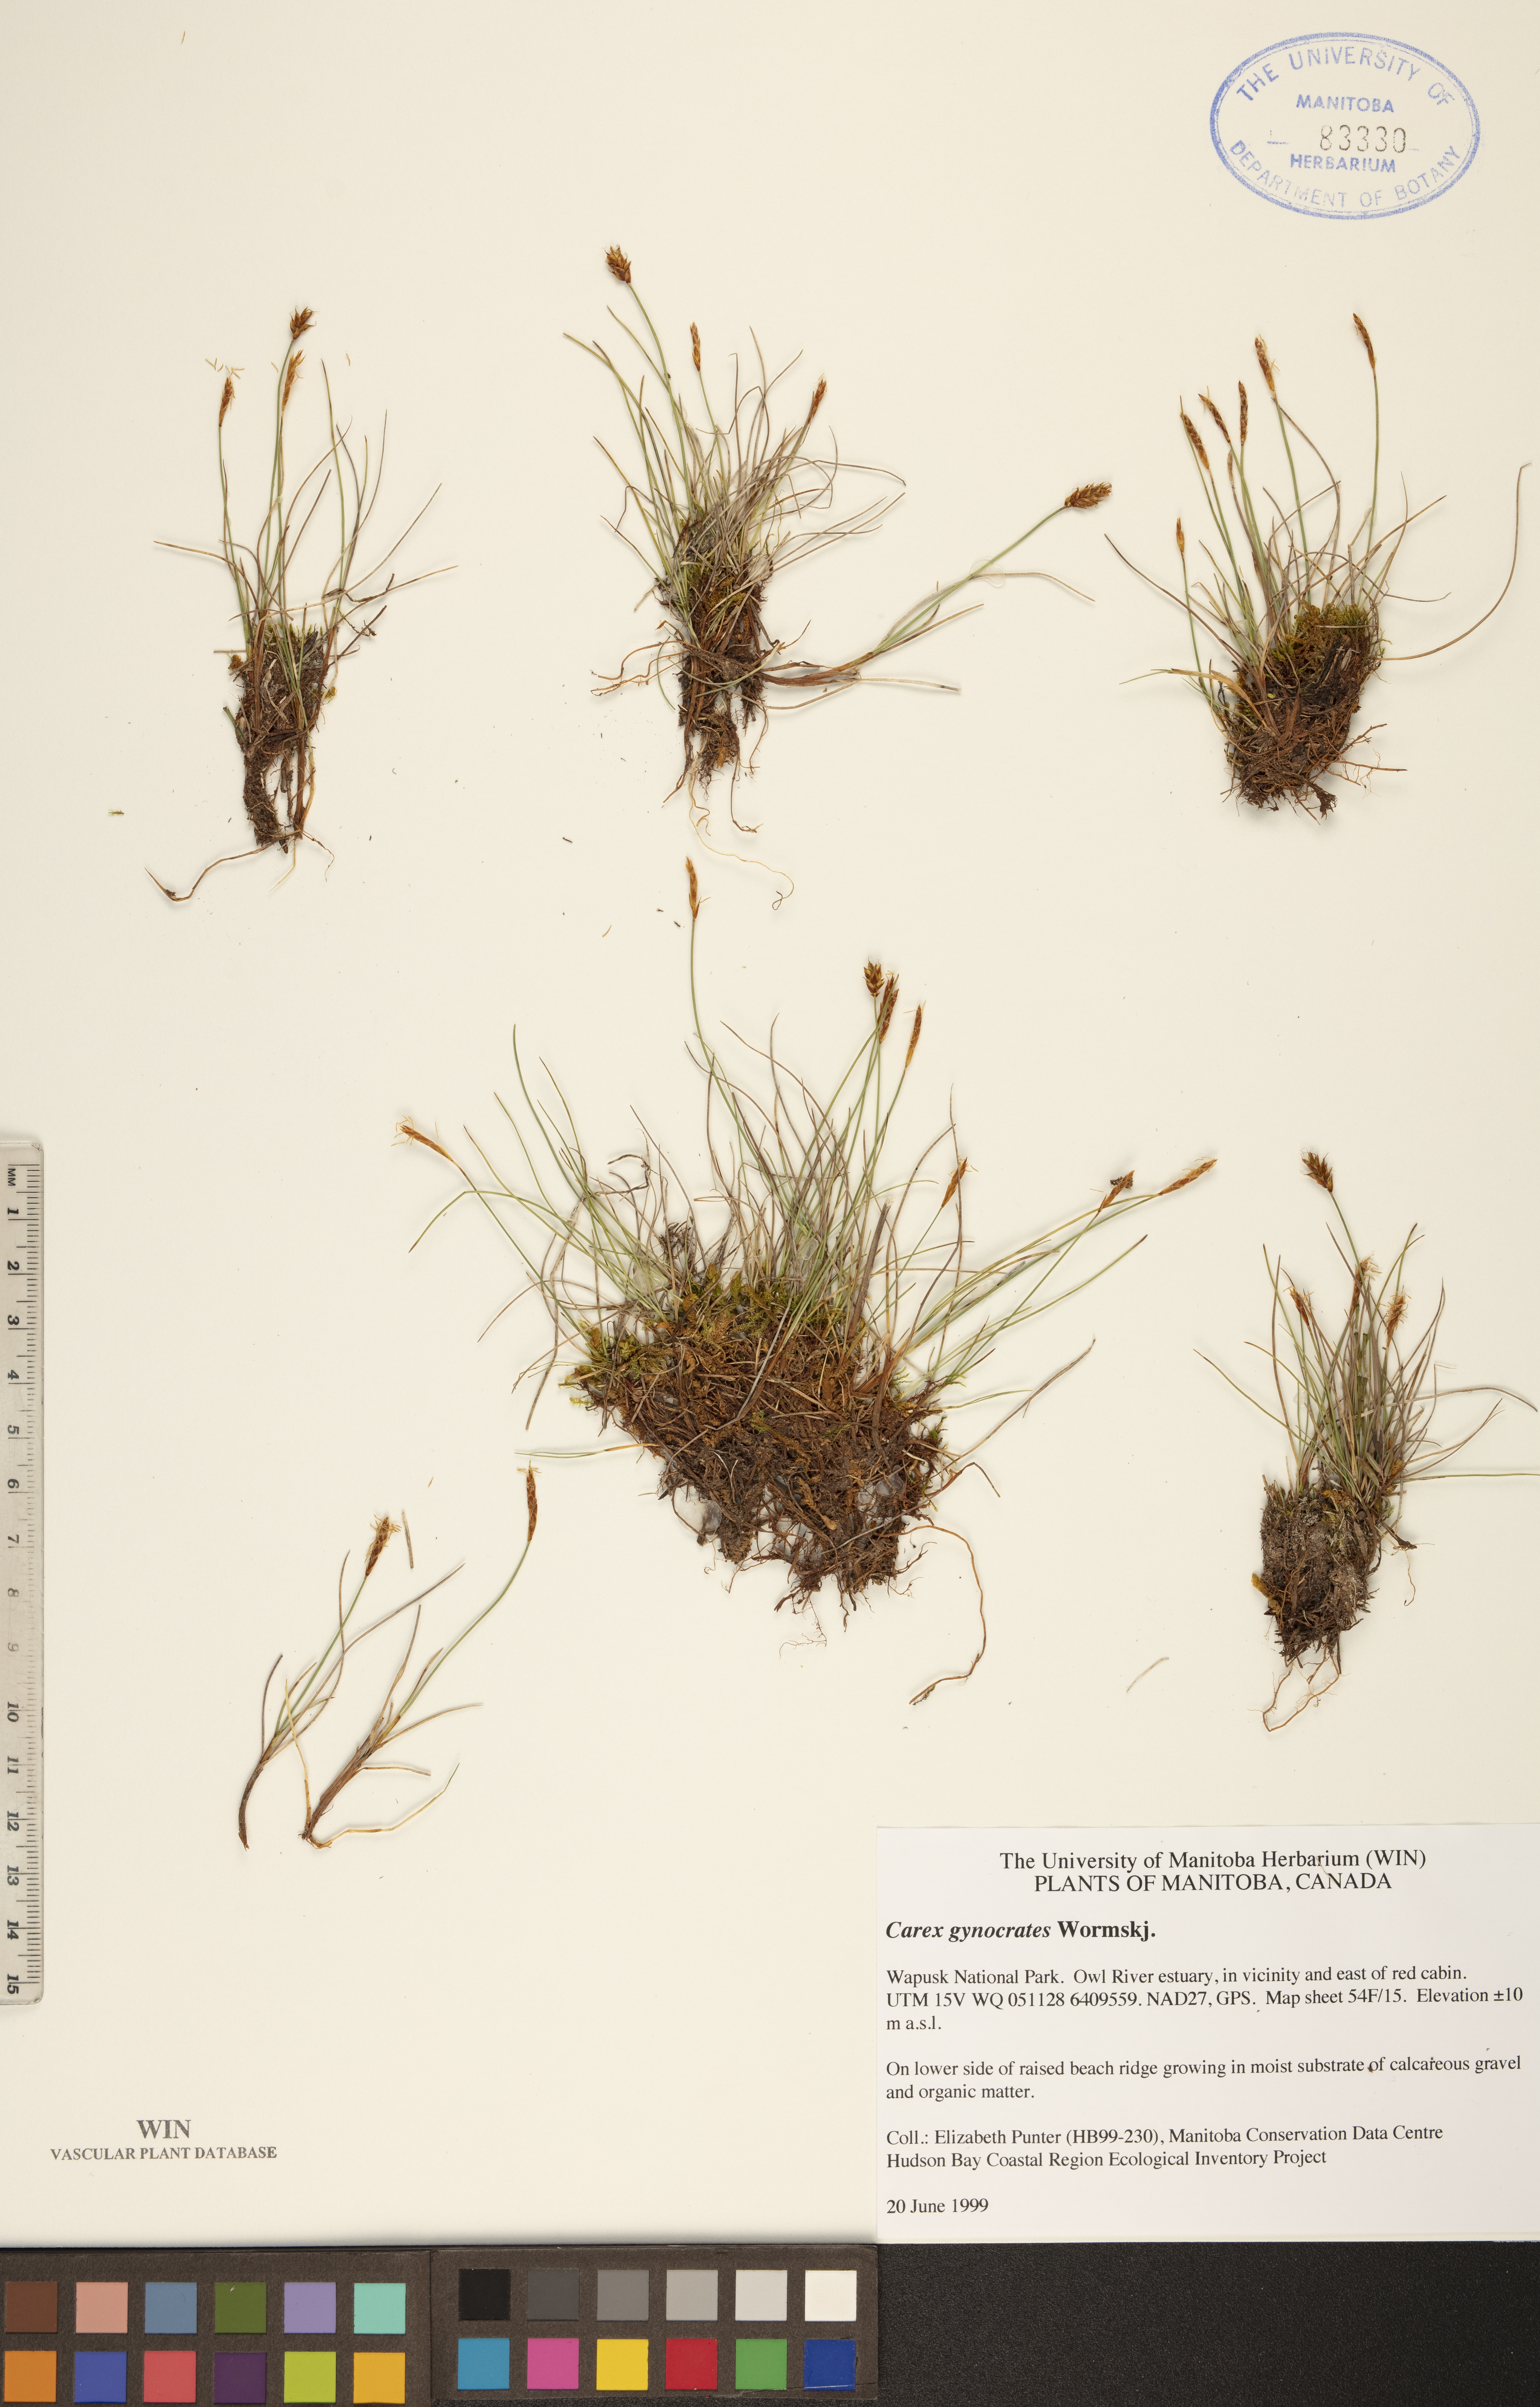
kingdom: Plantae
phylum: Tracheophyta
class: Liliopsida
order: Poales
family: Cyperaceae
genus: Carex
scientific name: Carex nardina
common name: Nard sedge
